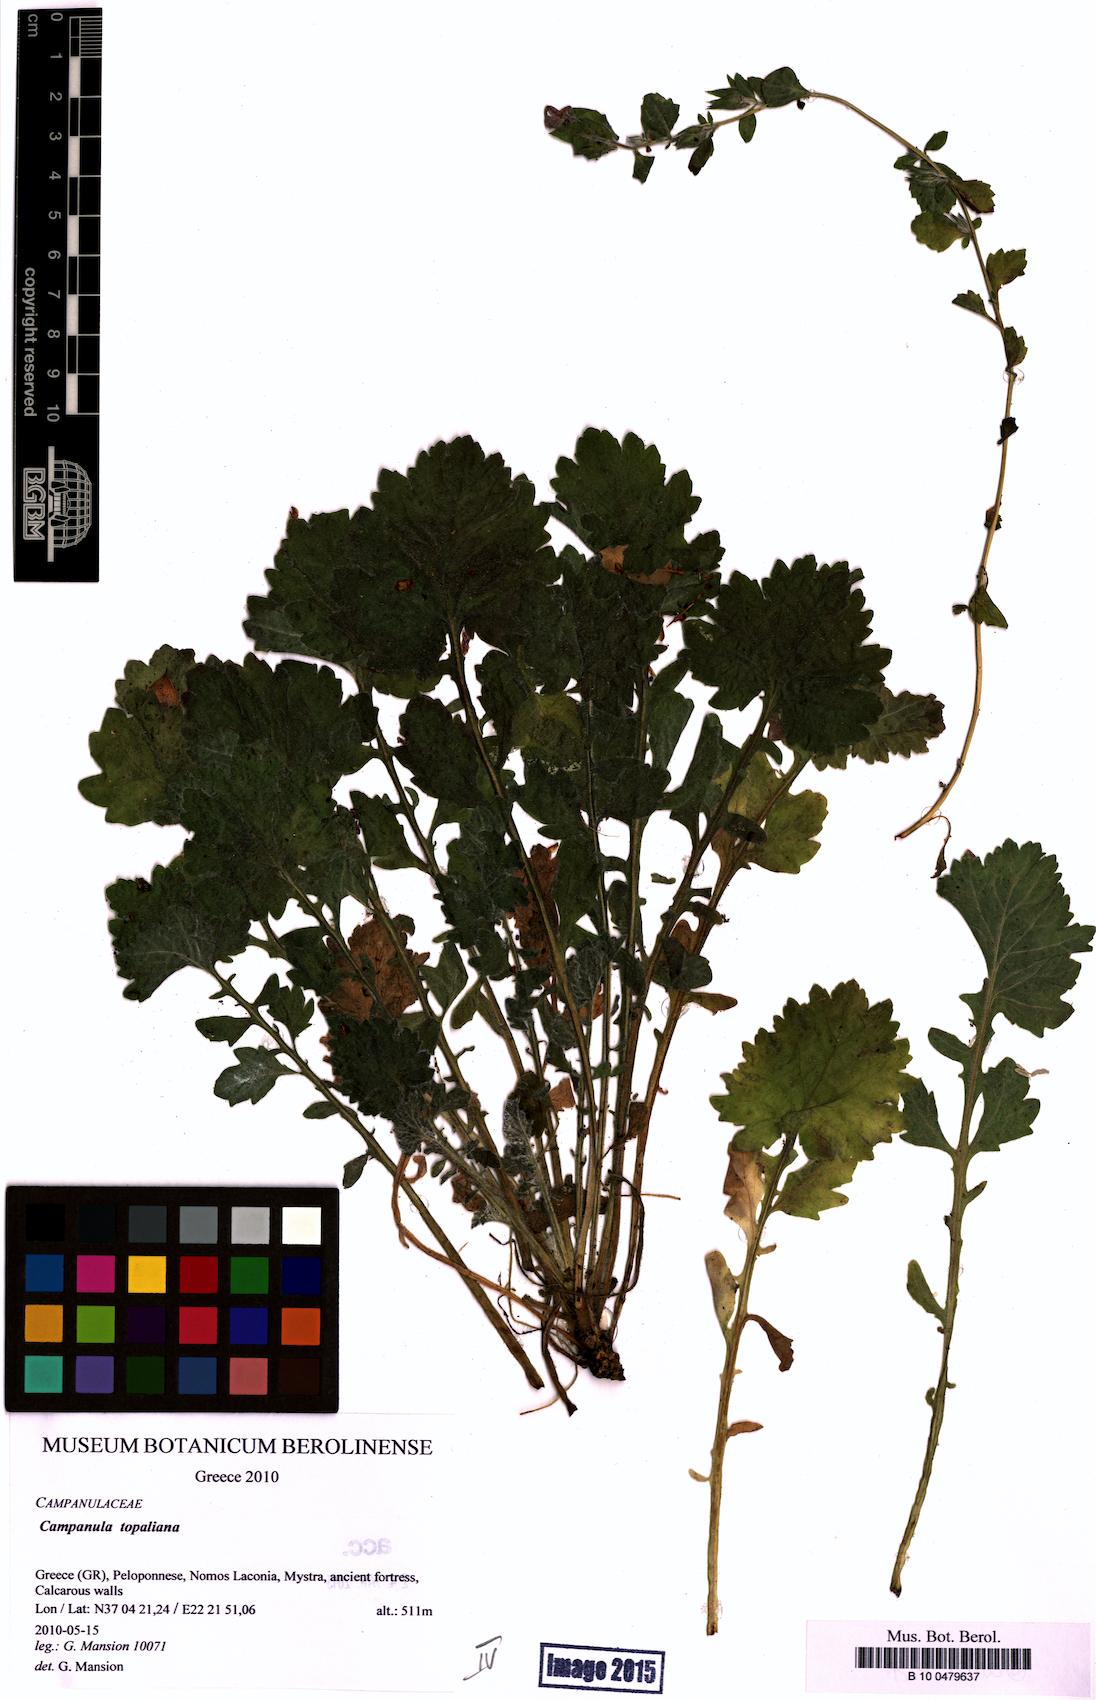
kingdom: Plantae
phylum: Tracheophyta
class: Magnoliopsida
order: Asterales
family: Campanulaceae
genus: Campanula
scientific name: Campanula topaliana
